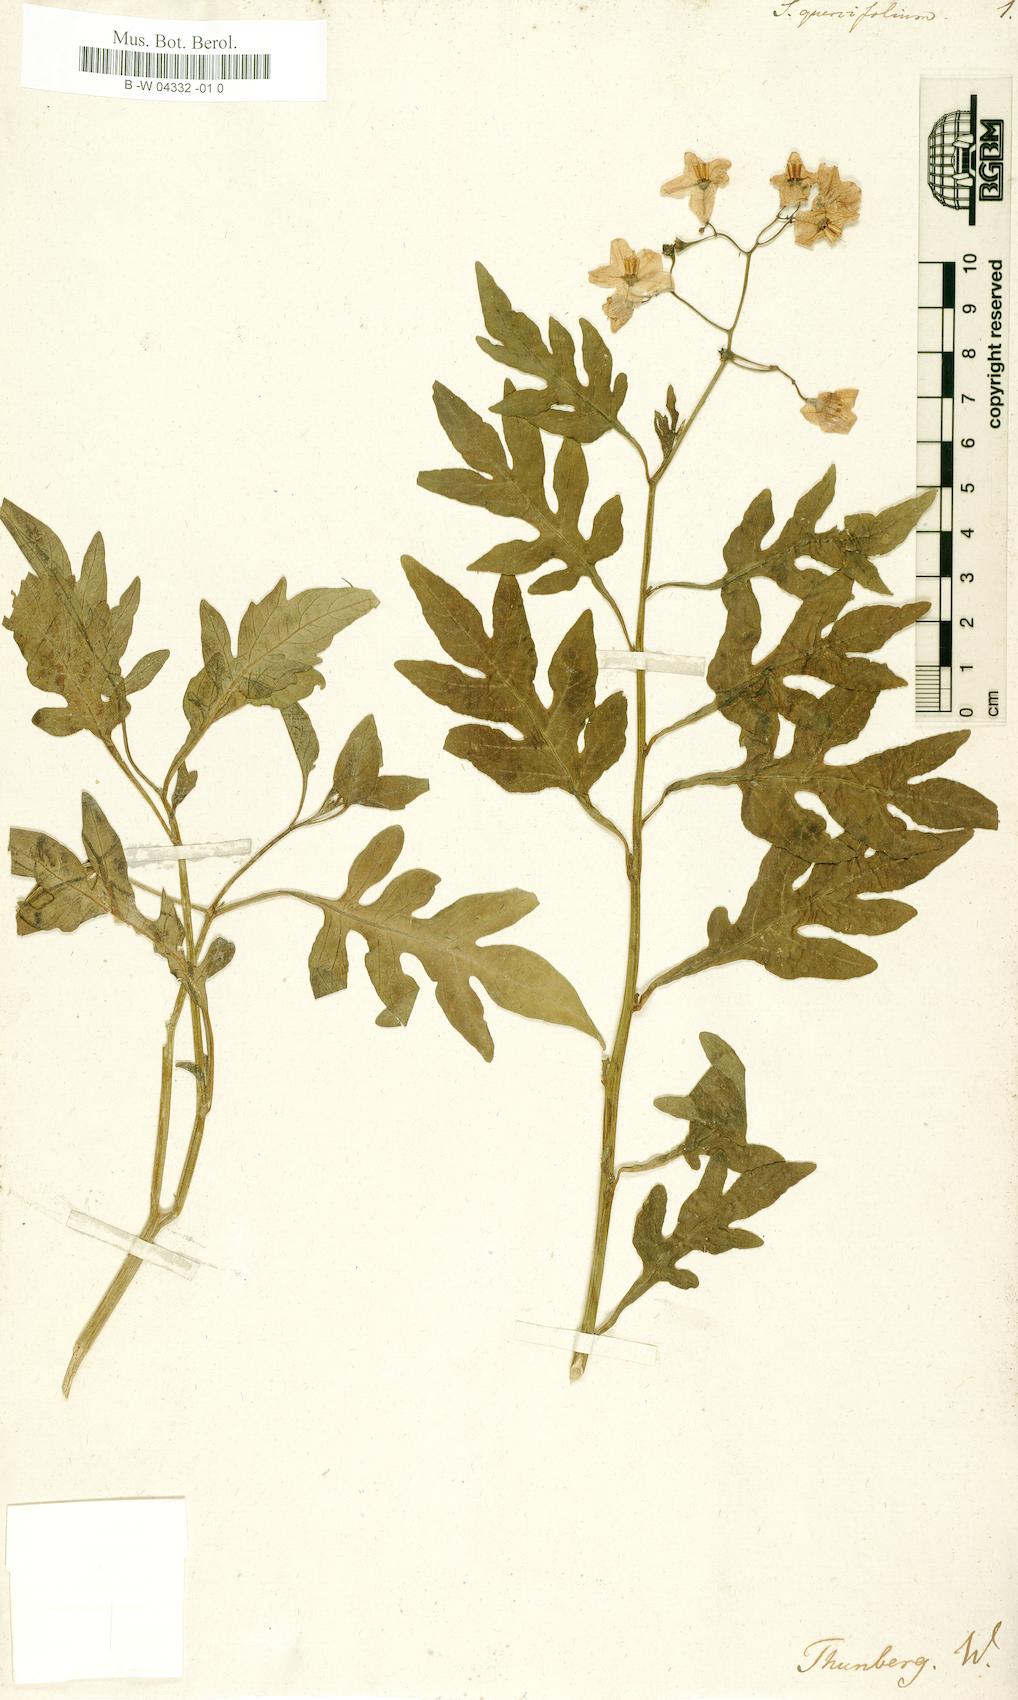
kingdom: Plantae
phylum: Tracheophyta
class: Magnoliopsida
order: Solanales
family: Solanaceae
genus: Solanum
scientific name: Solanum
